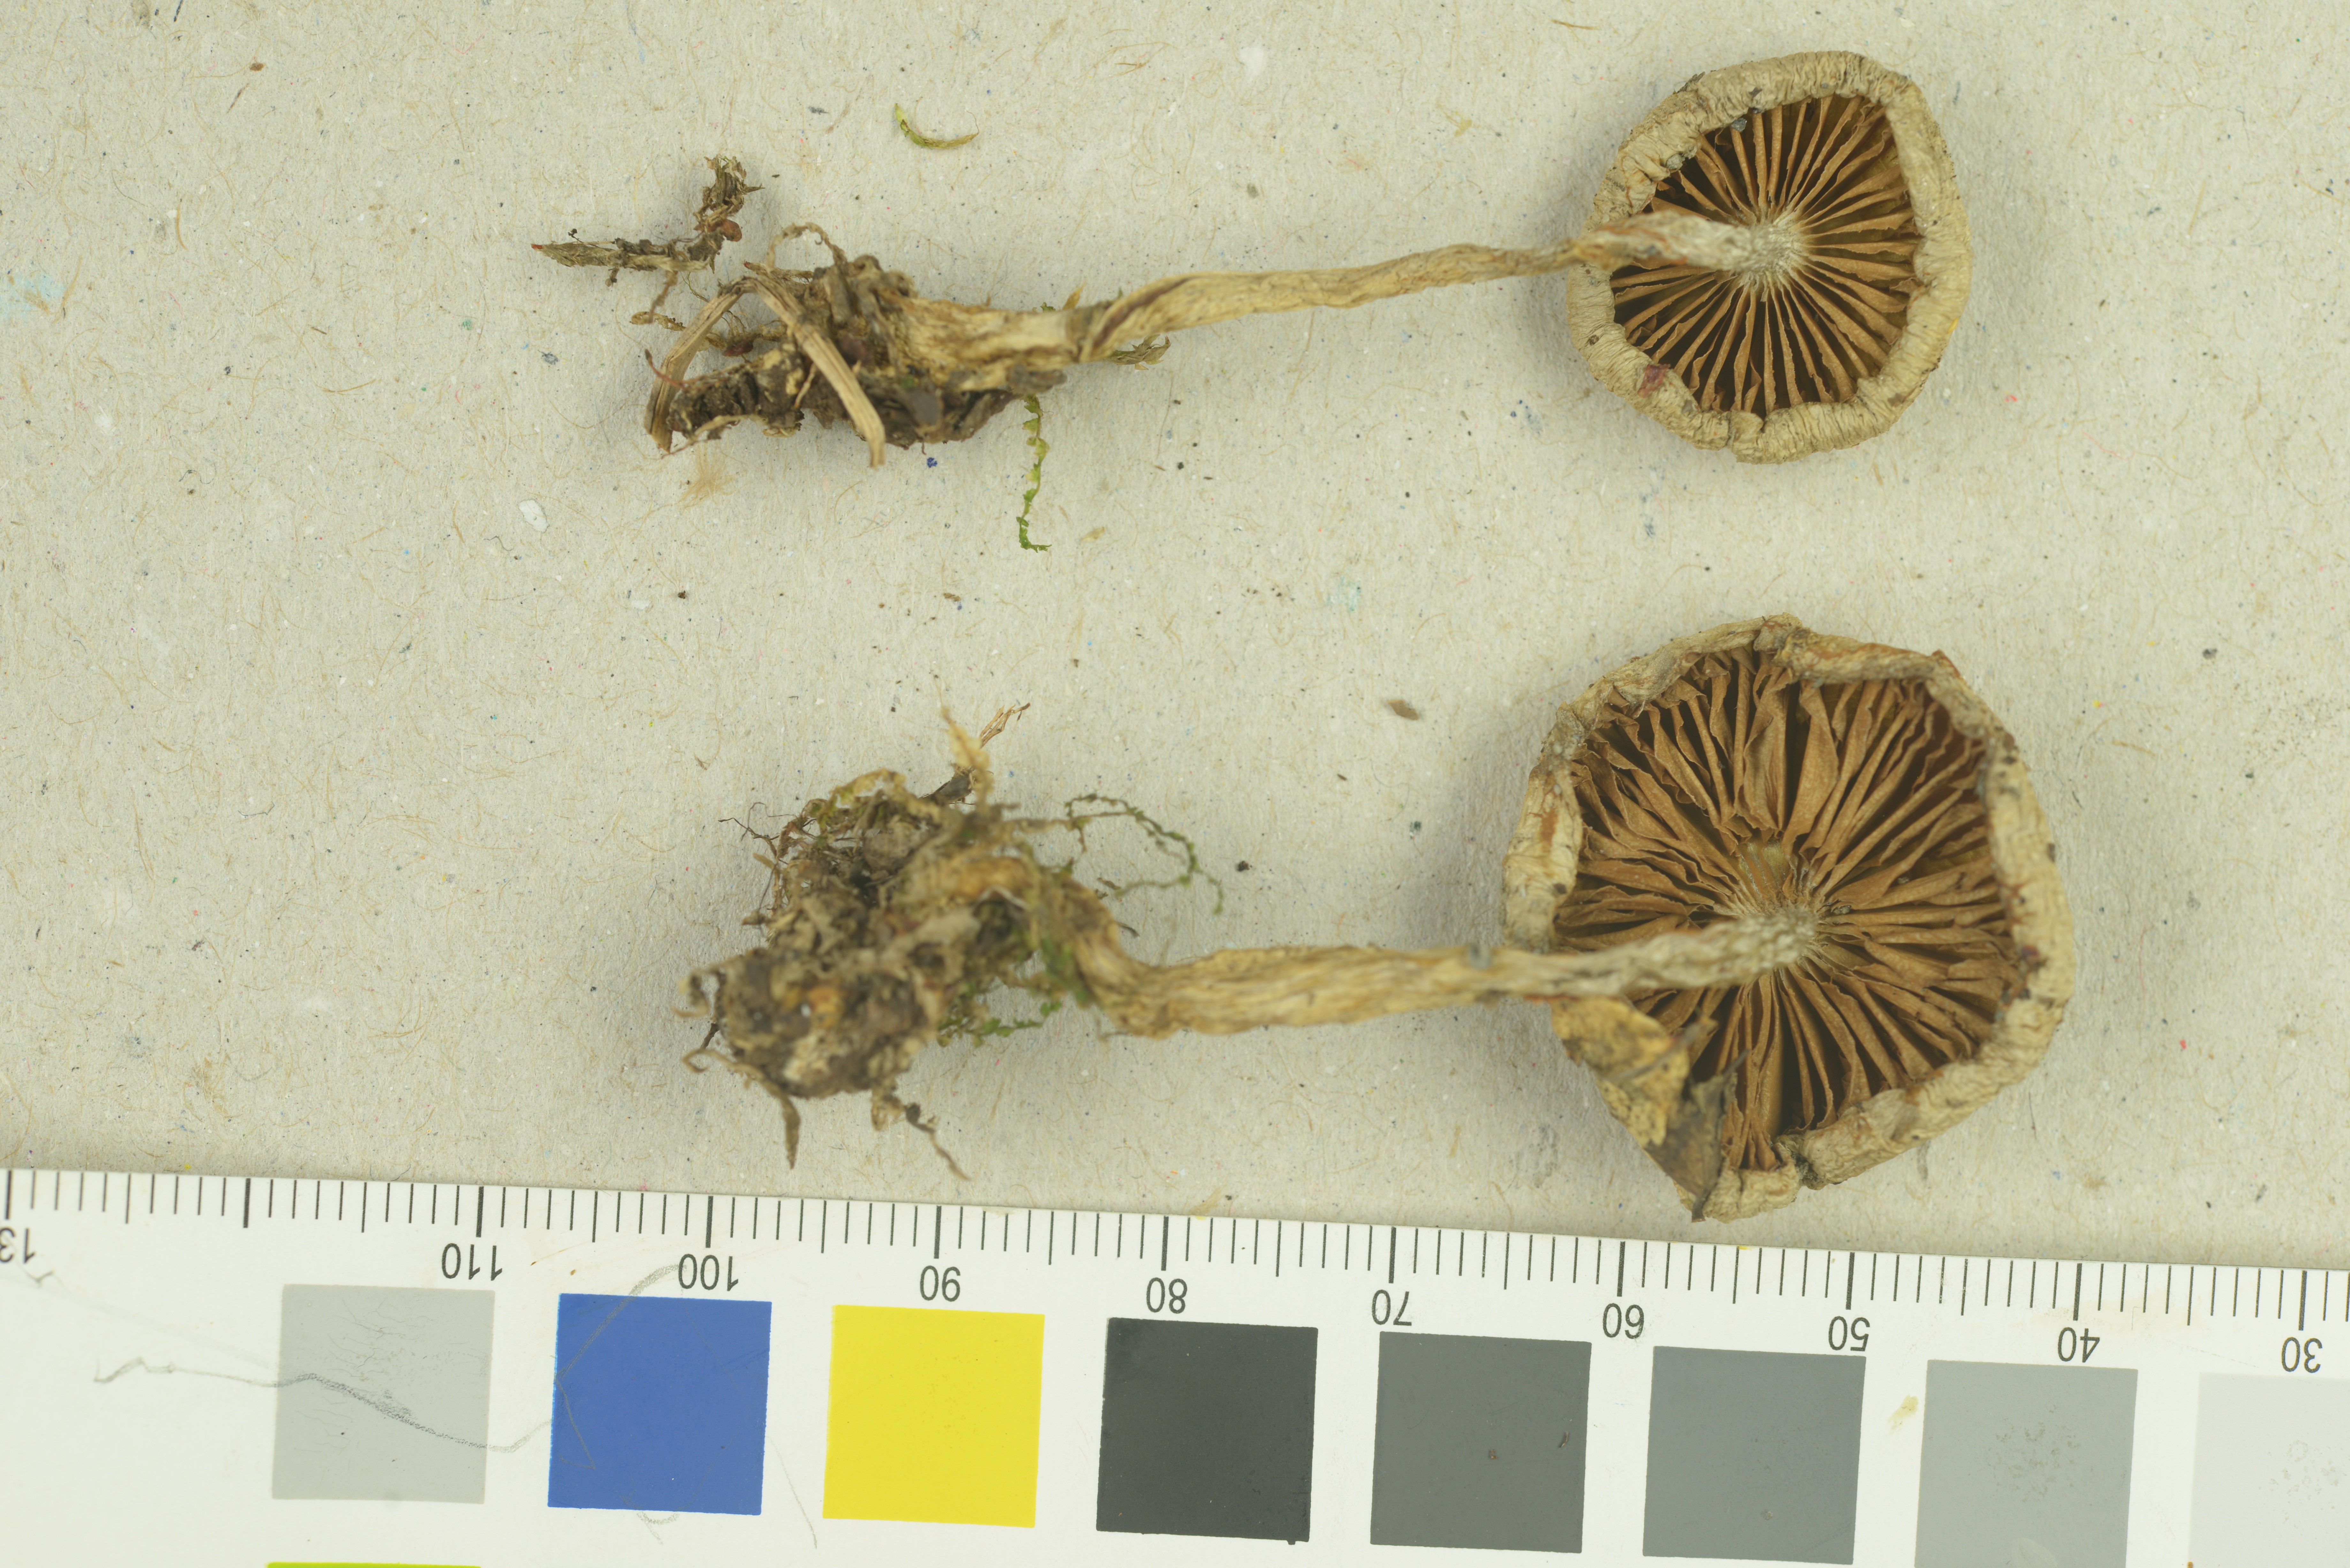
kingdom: Fungi
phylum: Basidiomycota
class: Agaricomycetes
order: Agaricales
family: Cortinariaceae
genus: Cortinarius
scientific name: Cortinarius betulinus
